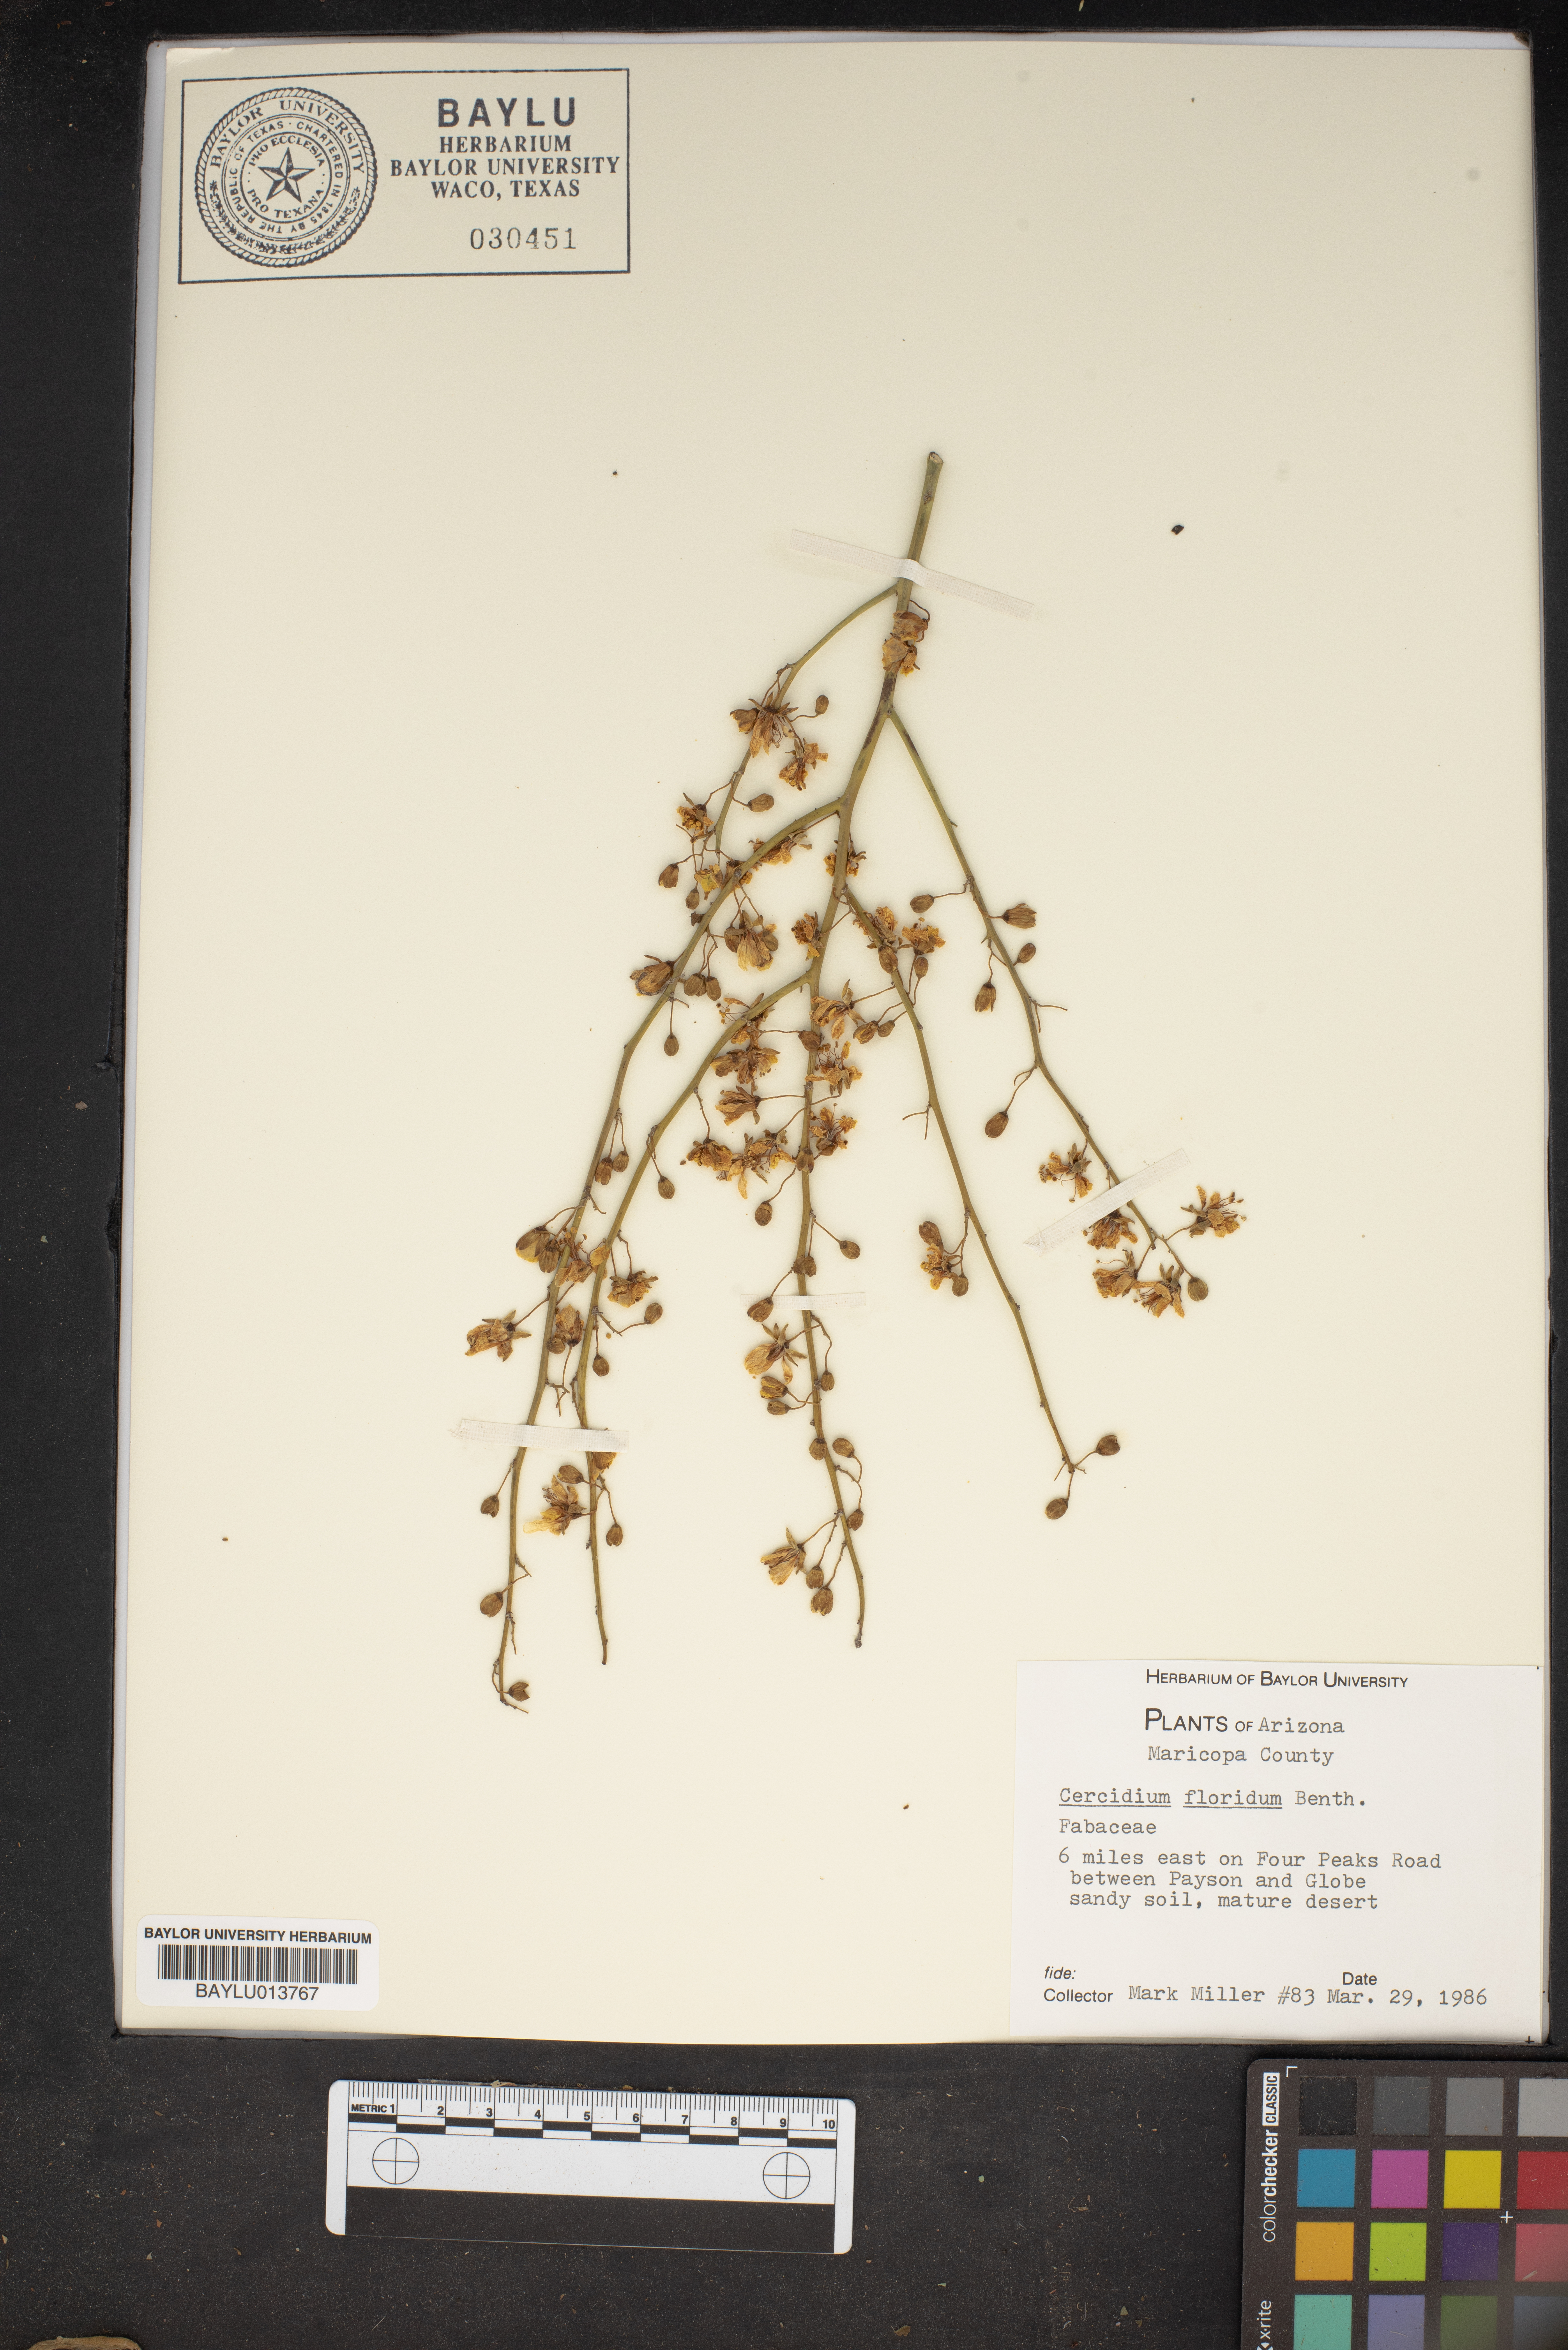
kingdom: Plantae
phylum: Tracheophyta
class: Magnoliopsida
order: Fabales
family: Fabaceae
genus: Parkinsonia
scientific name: Parkinsonia florida
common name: Blue paloverde
